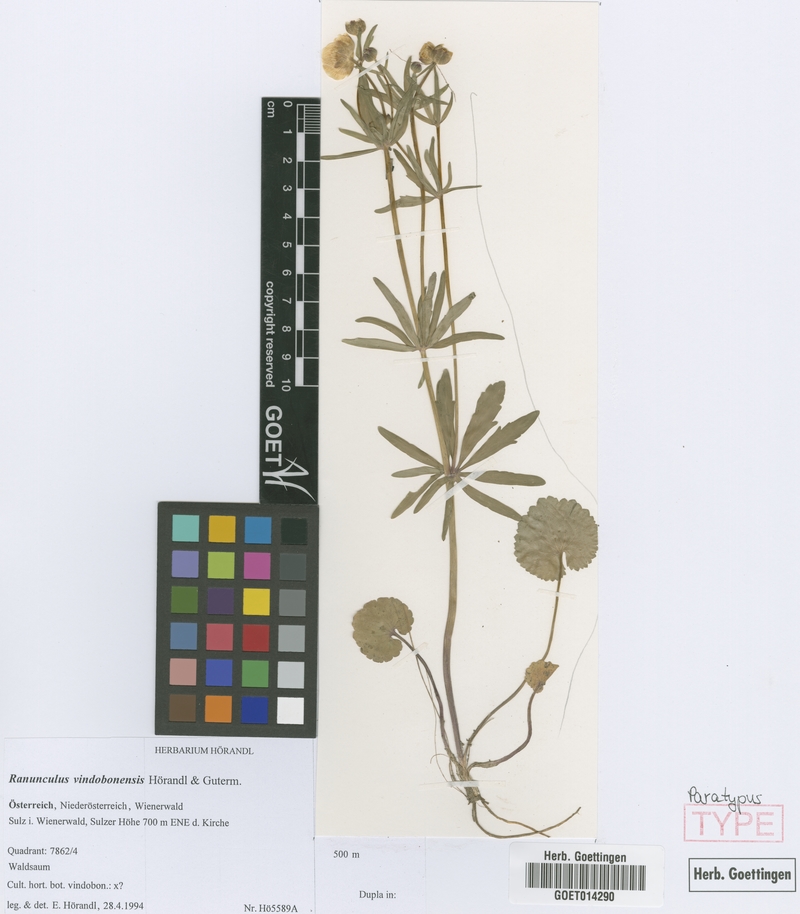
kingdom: Plantae
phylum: Tracheophyta
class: Magnoliopsida
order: Ranunculales
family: Ranunculaceae
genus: Ranunculus
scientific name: Ranunculus vindobonensis
